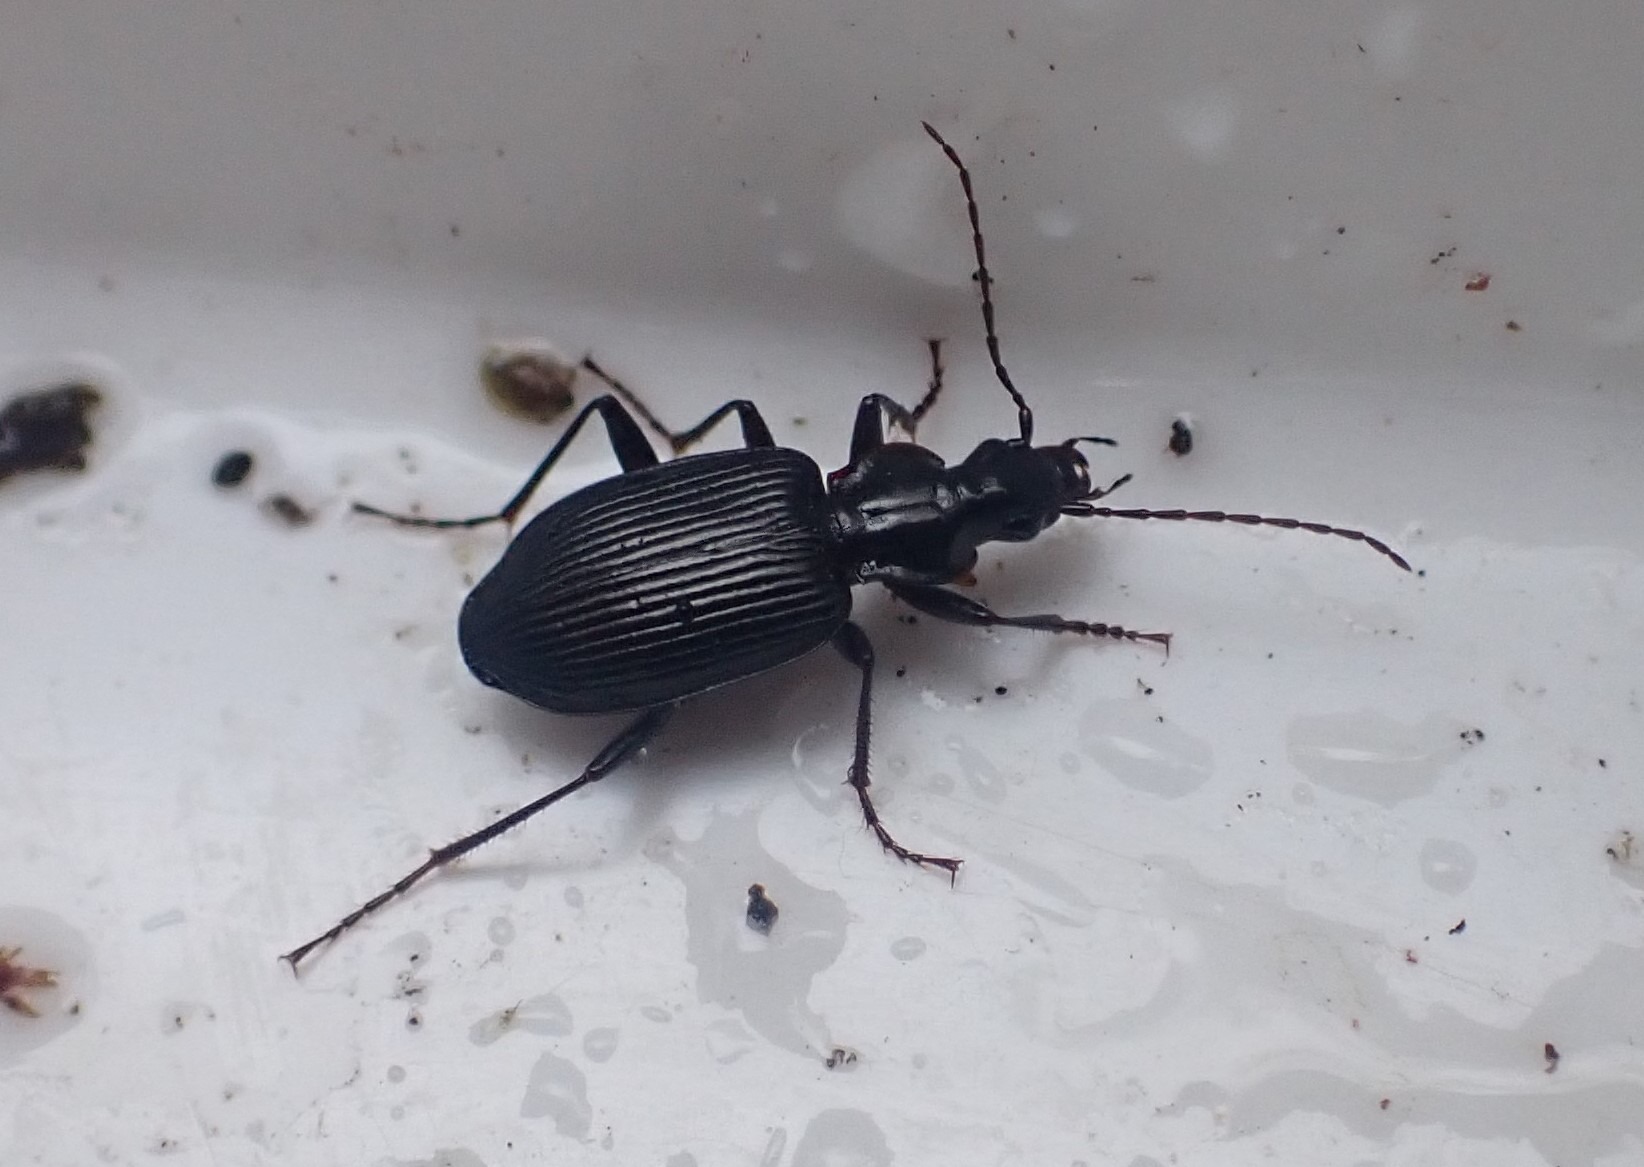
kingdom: Animalia
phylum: Arthropoda
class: Insecta
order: Coleoptera
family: Carabidae
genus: Platynus
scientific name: Platynus assimilis
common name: Skovkvikløber
